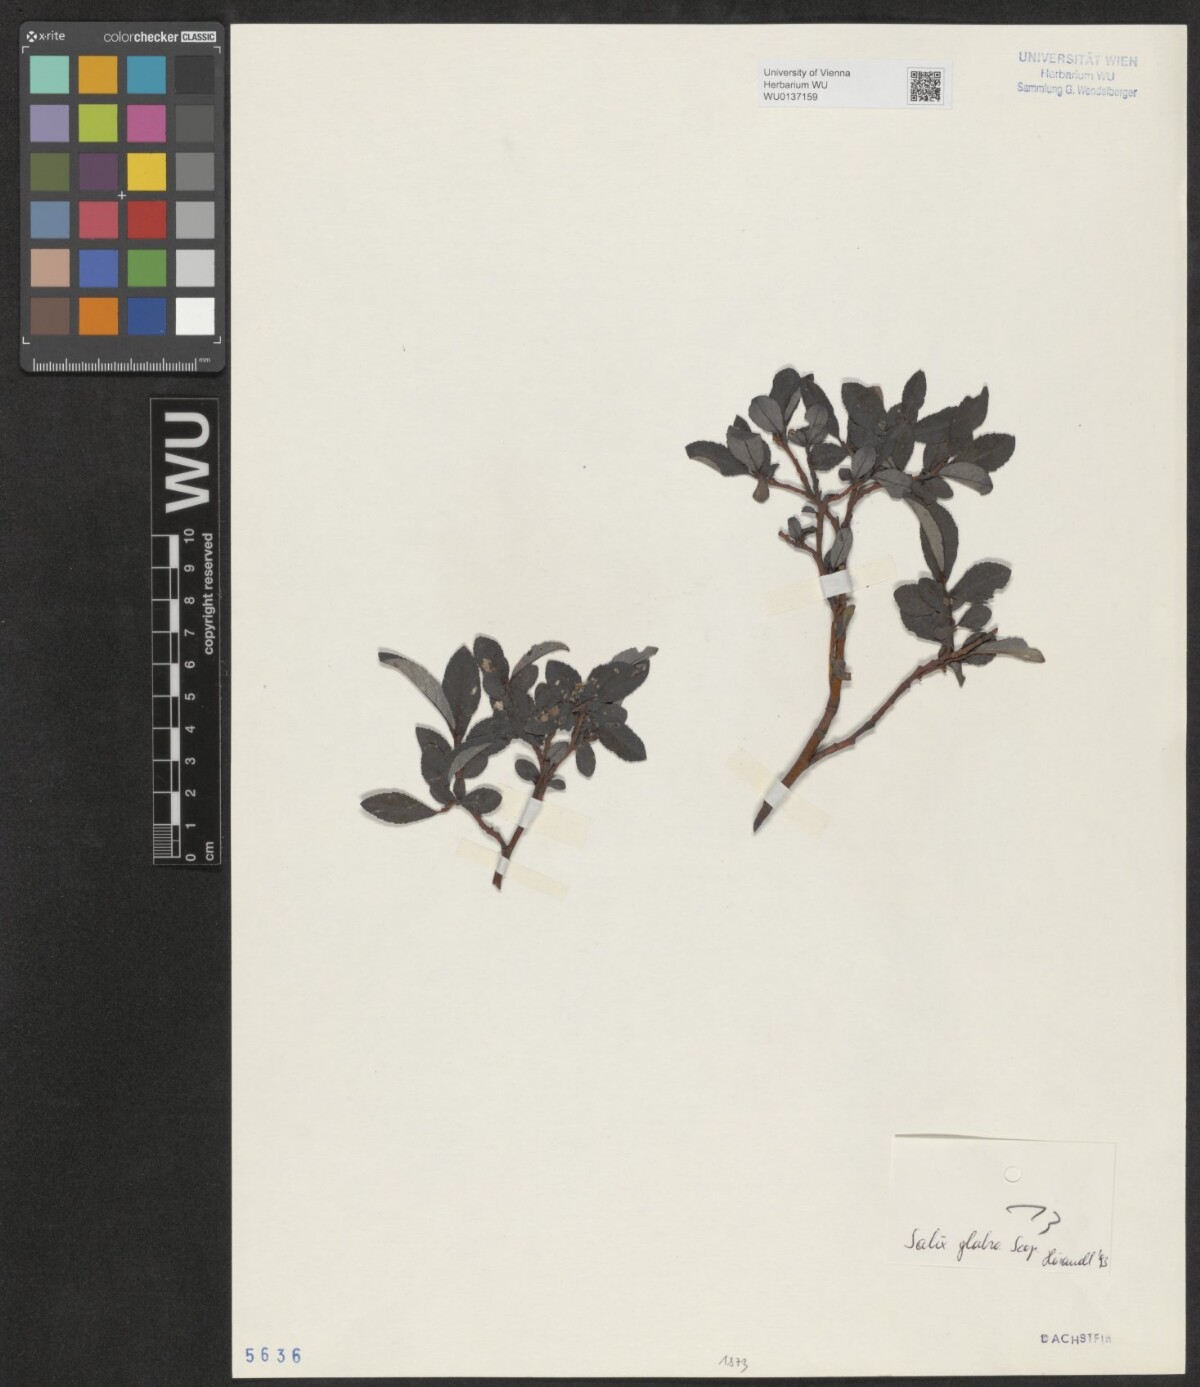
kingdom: Plantae
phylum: Tracheophyta
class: Magnoliopsida
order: Malpighiales
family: Salicaceae
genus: Salix
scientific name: Salix glabra
